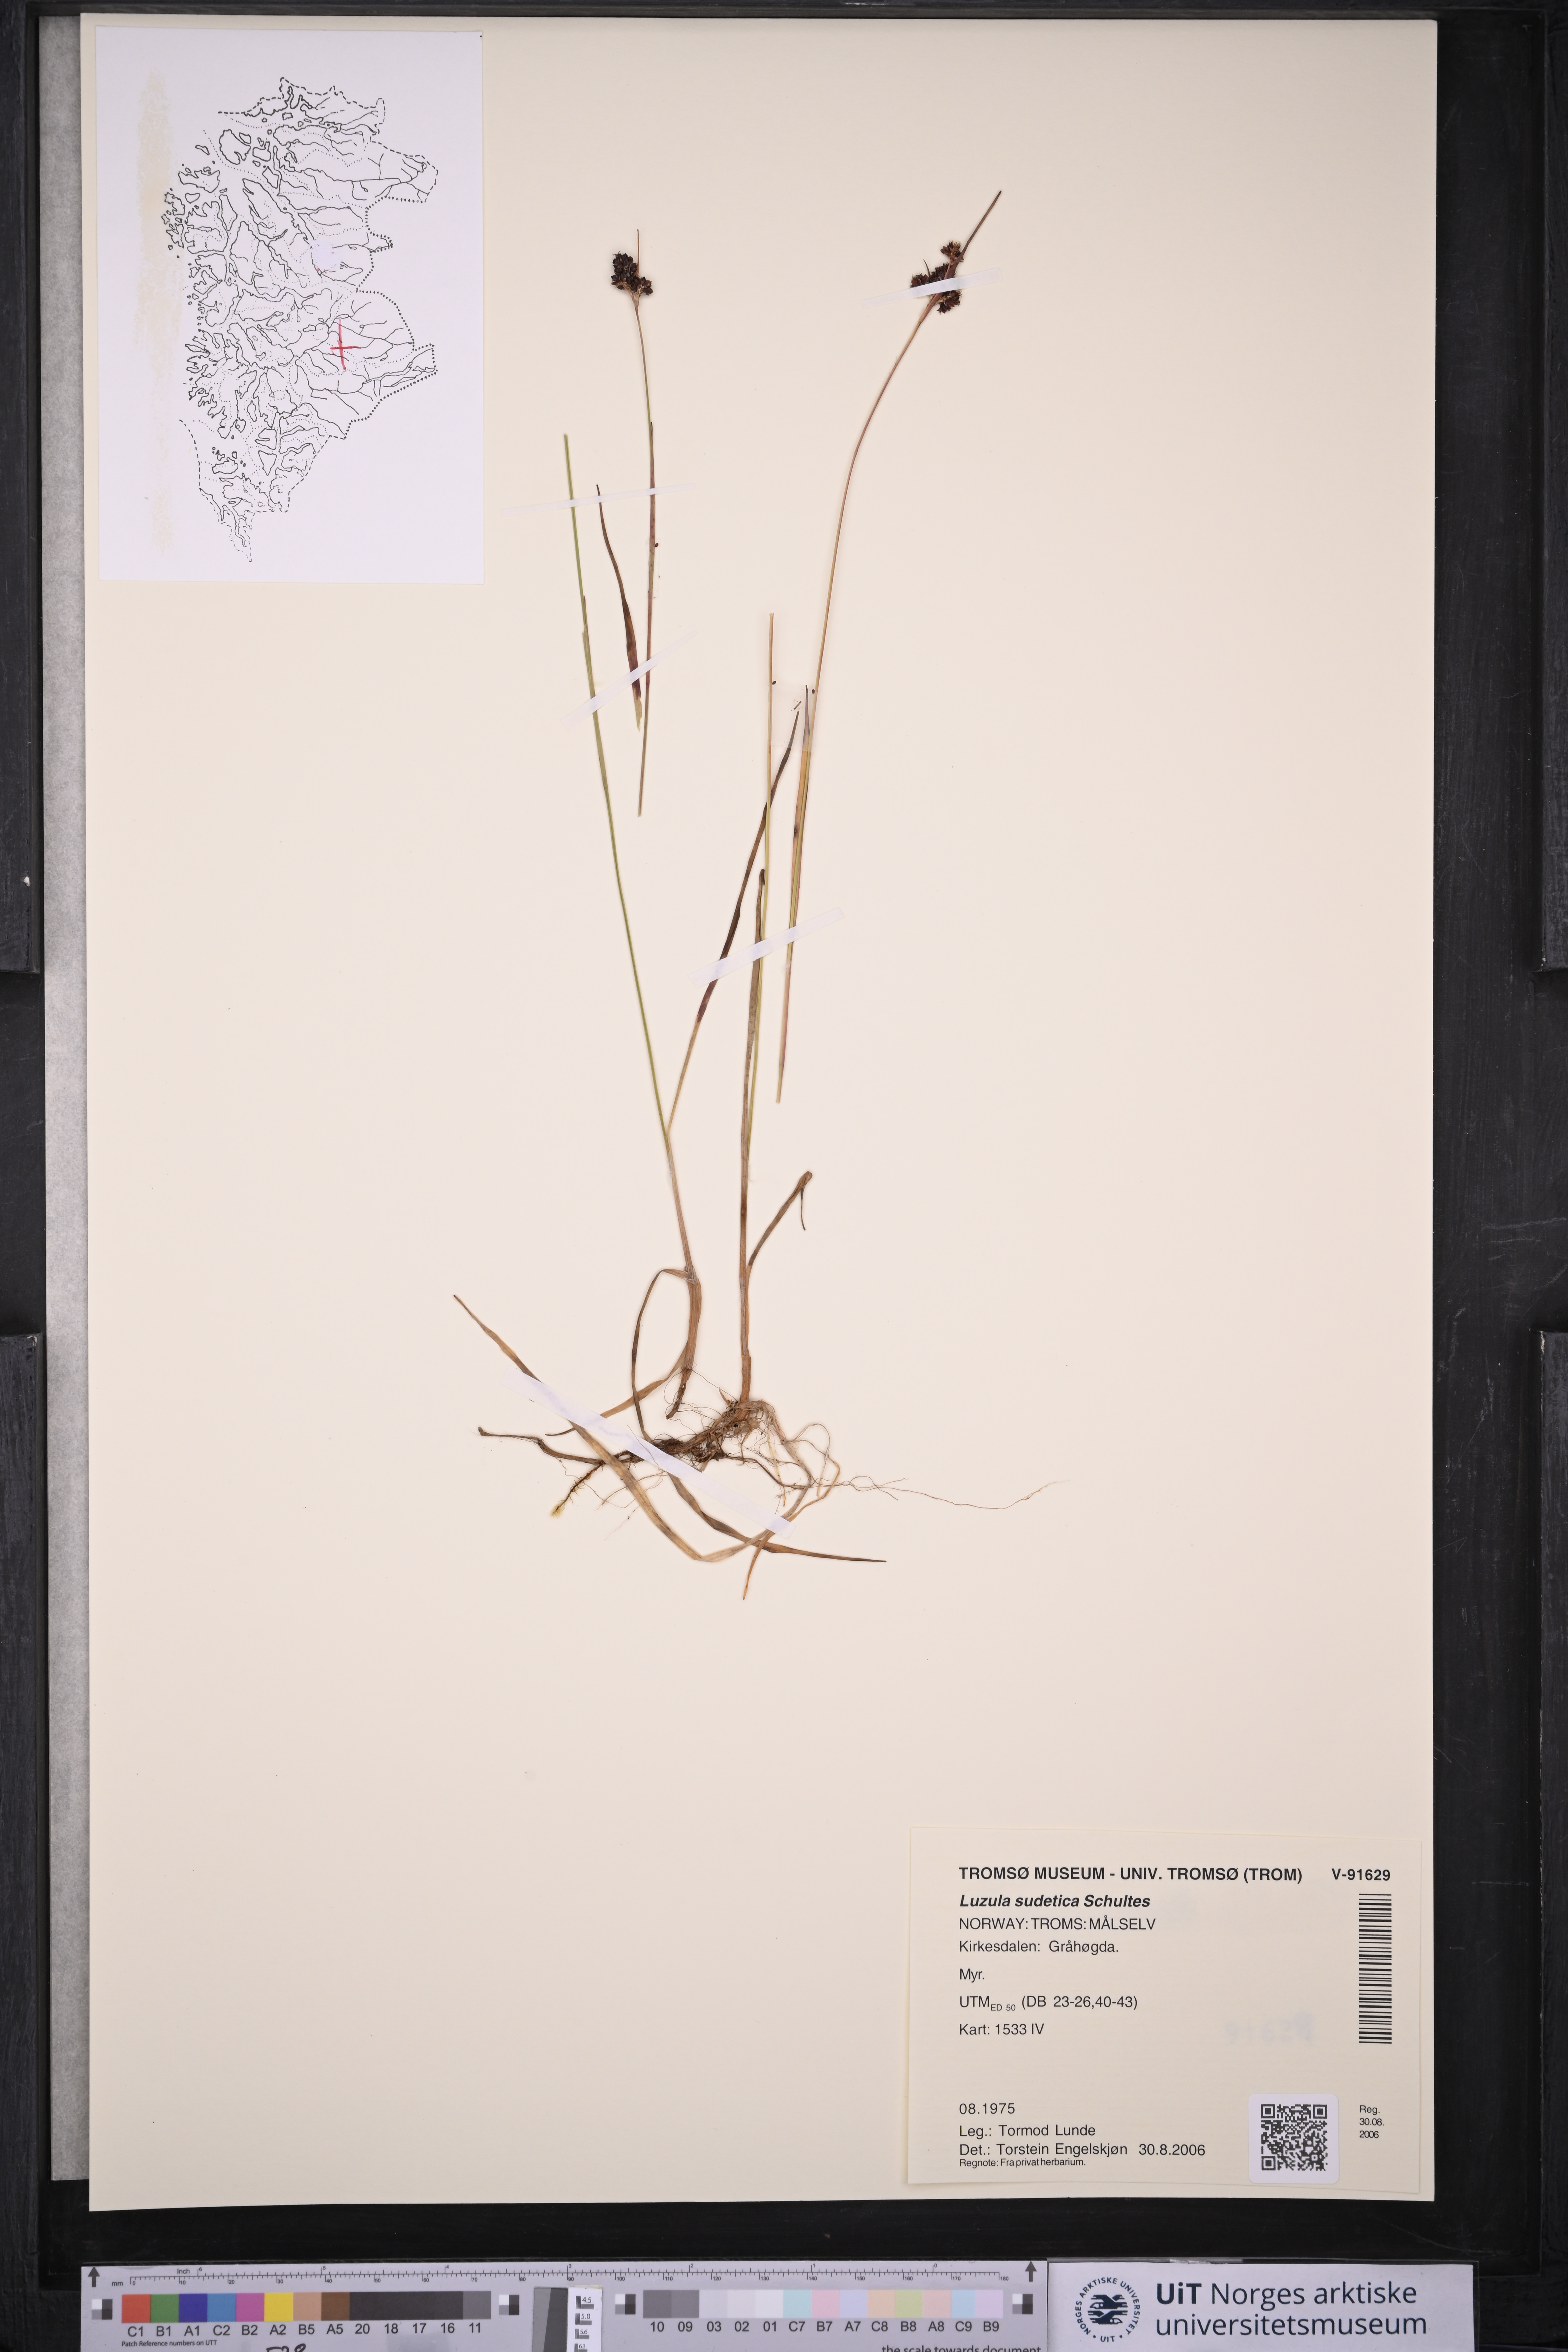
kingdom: Plantae
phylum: Tracheophyta
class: Liliopsida
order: Poales
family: Juncaceae
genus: Luzula
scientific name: Luzula sudetica
